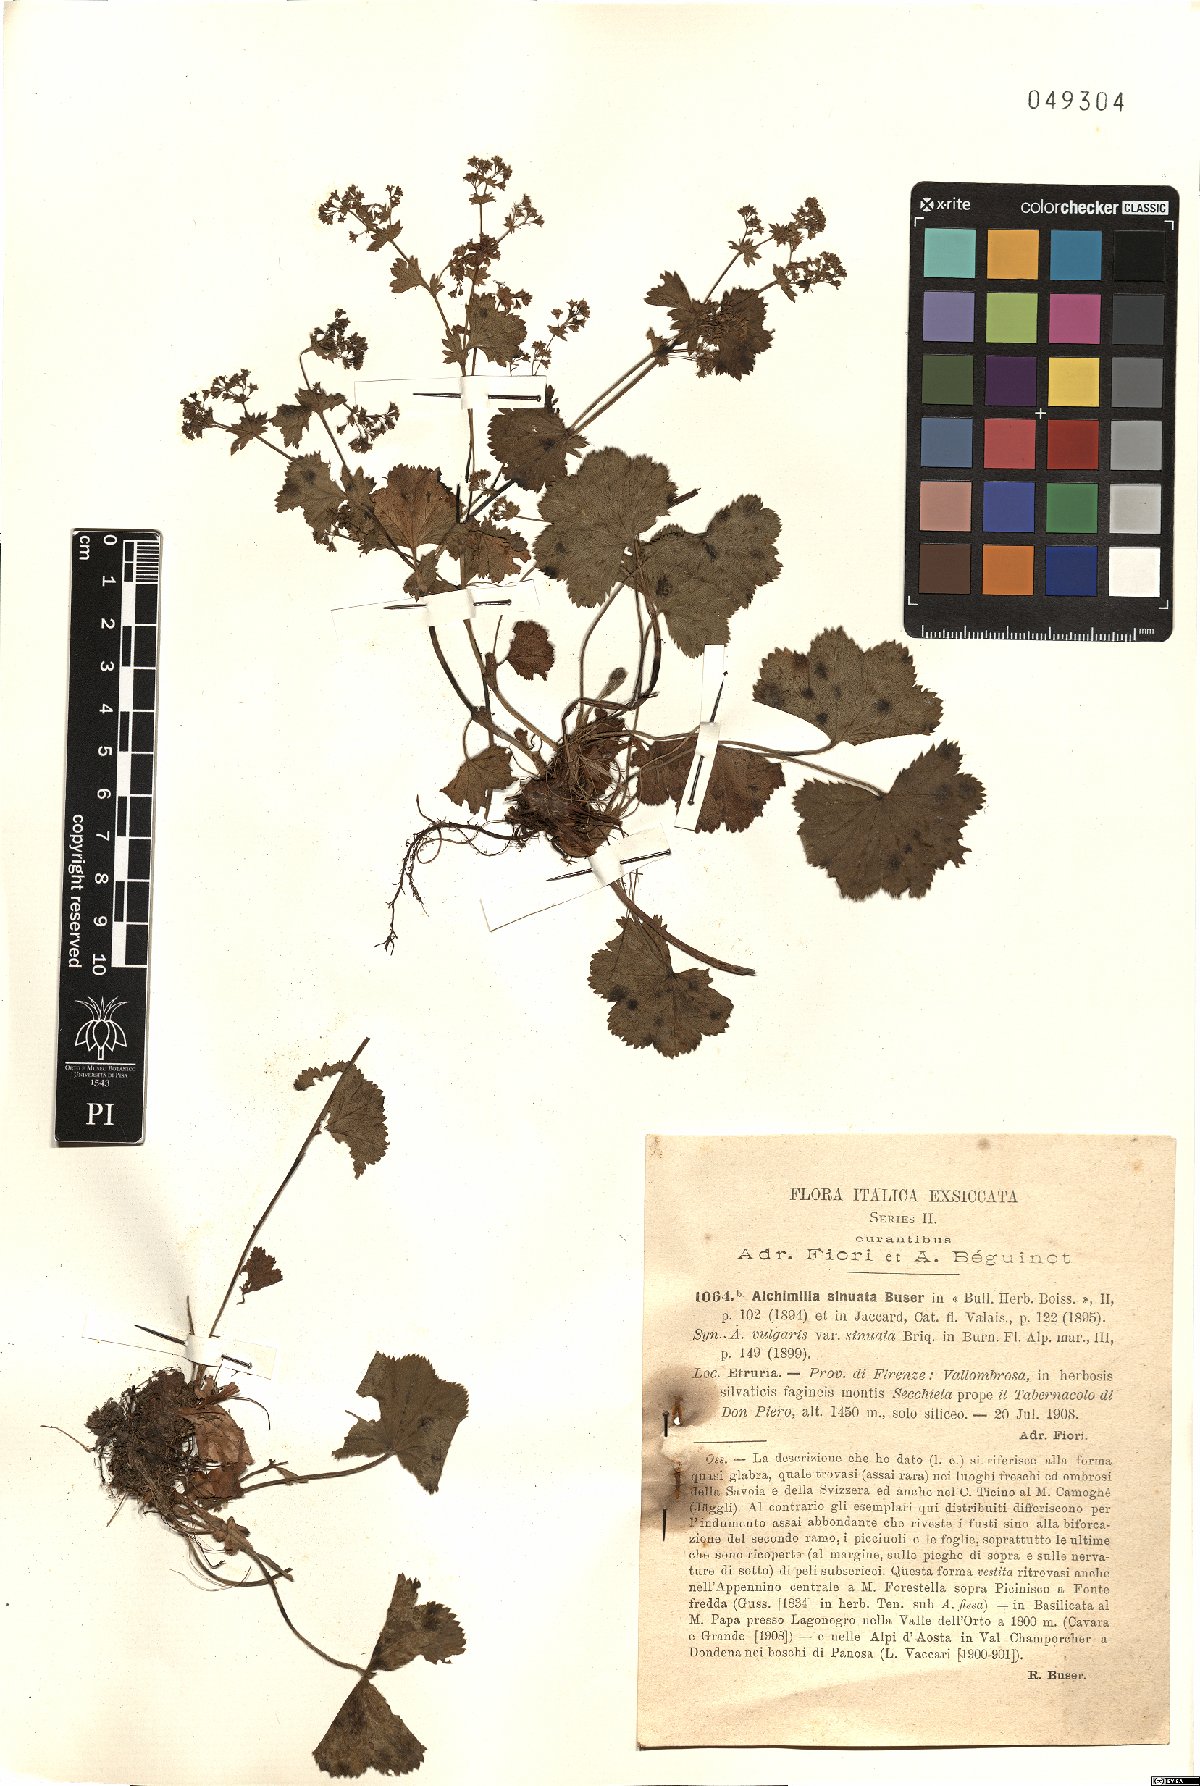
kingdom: Plantae
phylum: Tracheophyta
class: Magnoliopsida
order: Rosales
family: Rosaceae
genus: Alchemilla
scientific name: Alchemilla fallax
